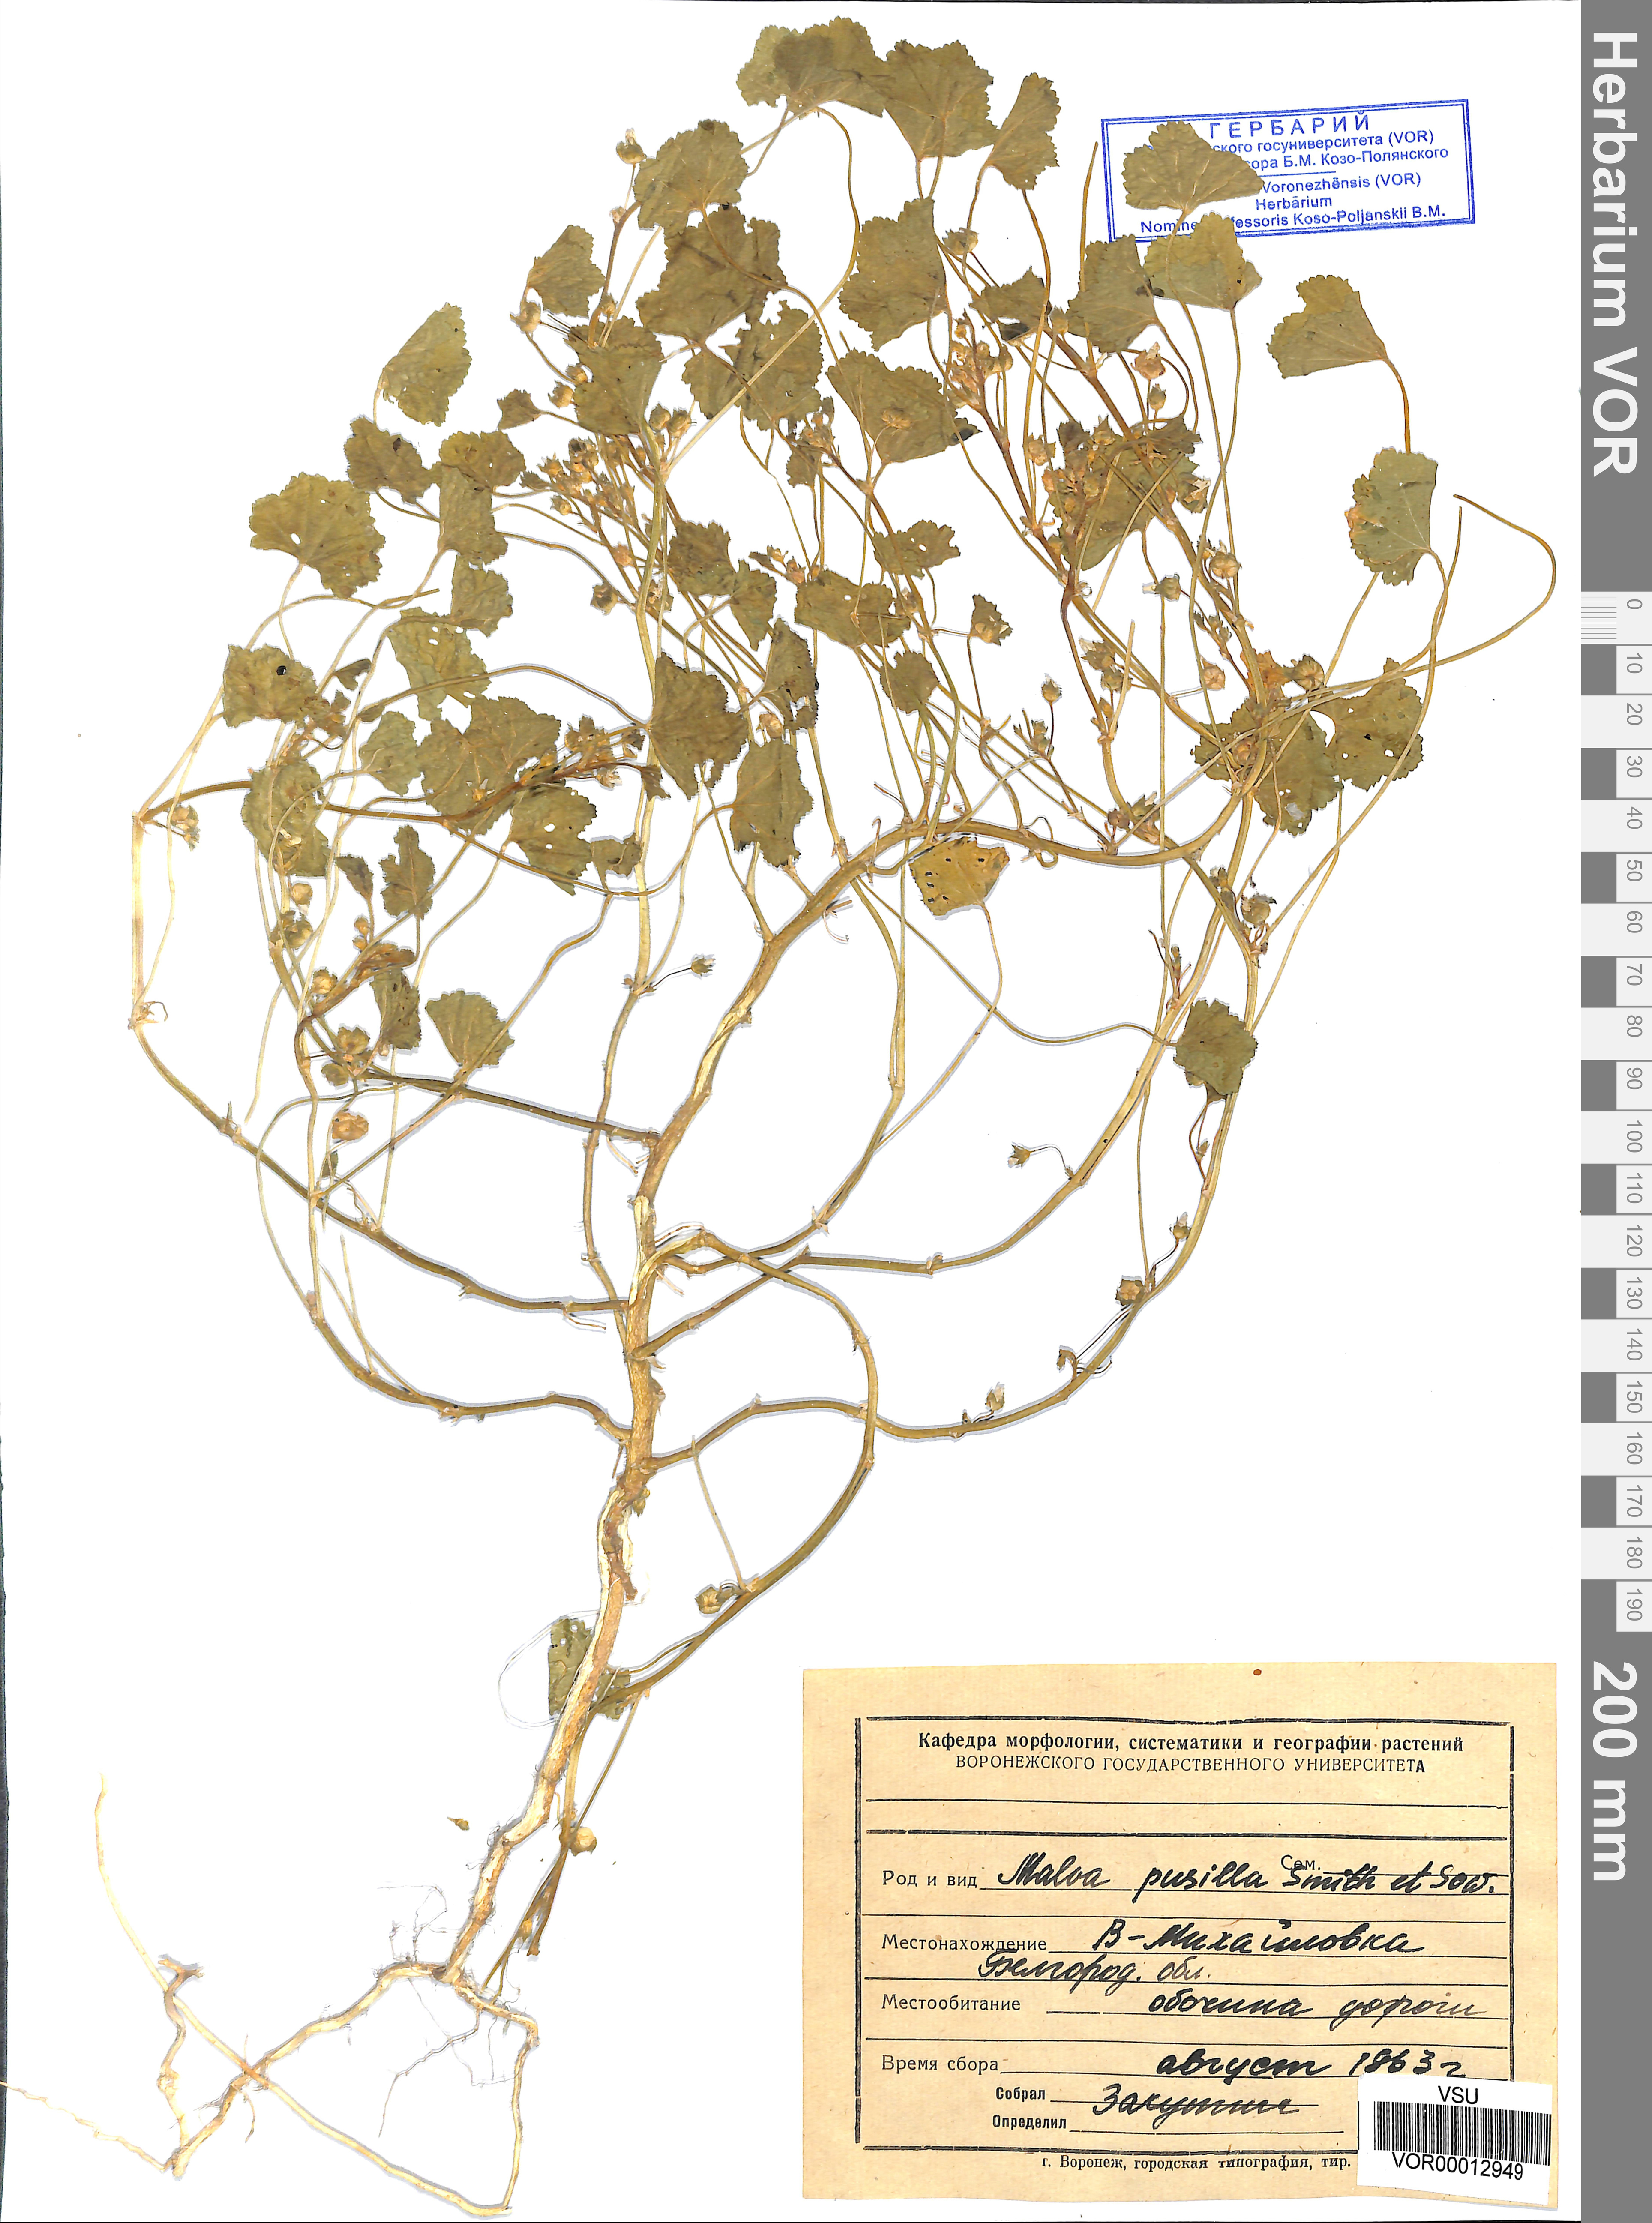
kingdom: Plantae
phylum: Tracheophyta
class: Magnoliopsida
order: Malvales
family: Malvaceae
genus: Malva
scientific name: Malva pusilla
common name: Small mallow
